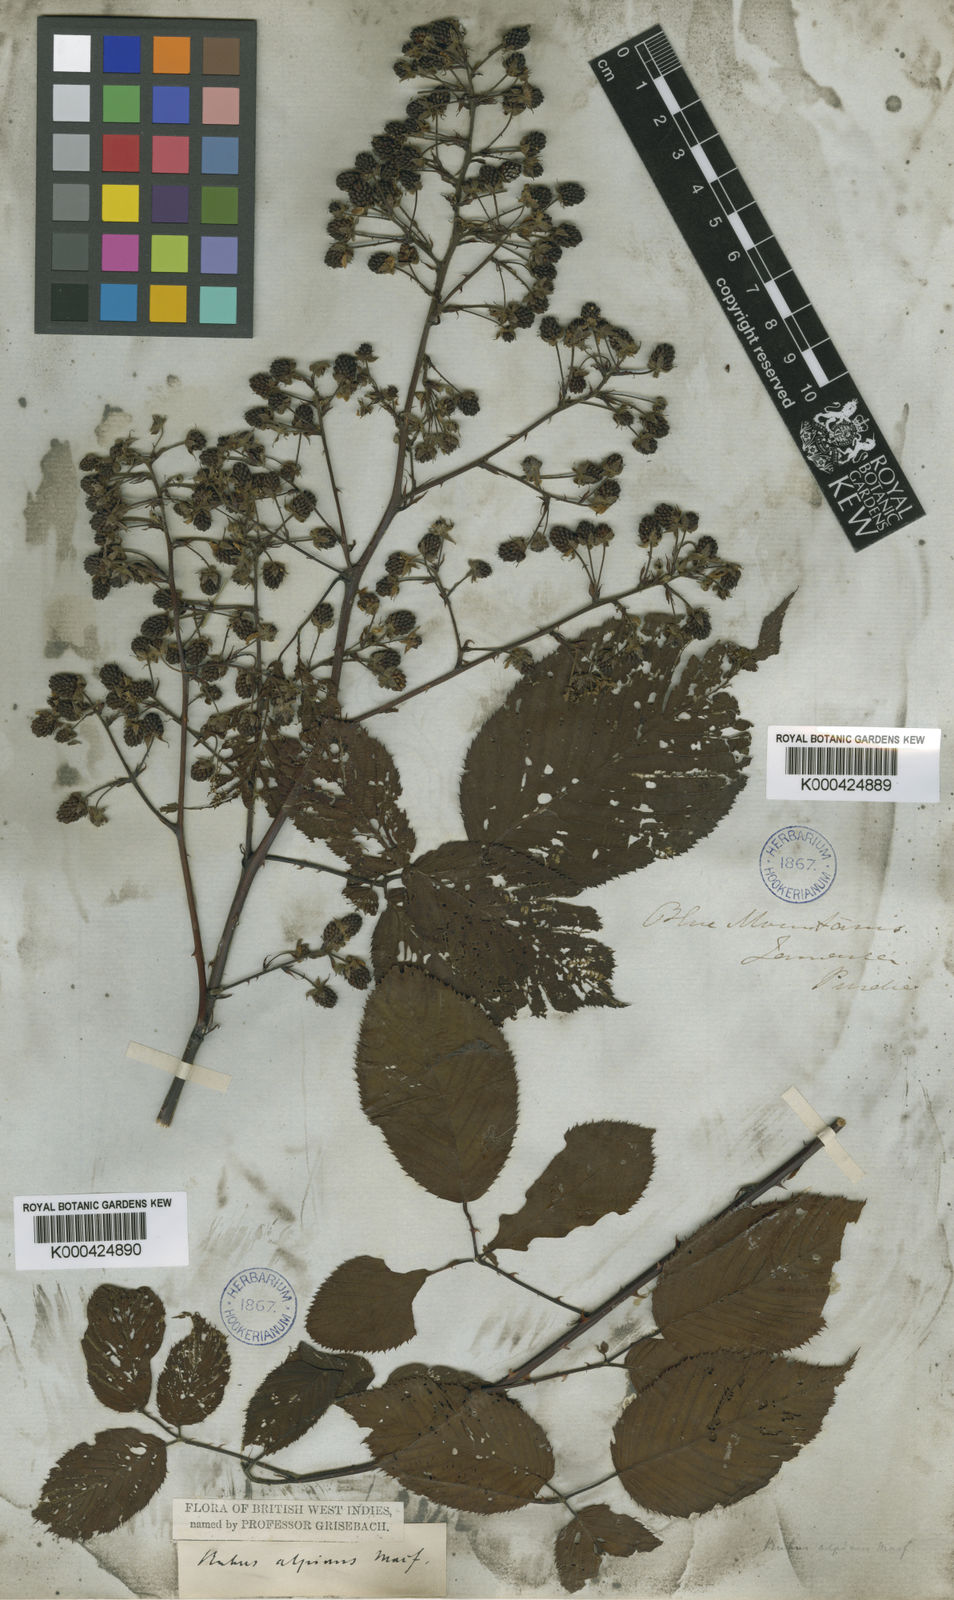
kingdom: Plantae
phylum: Tracheophyta
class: Magnoliopsida
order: Rosales
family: Rosaceae
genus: Rubus
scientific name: Rubus alpinus
